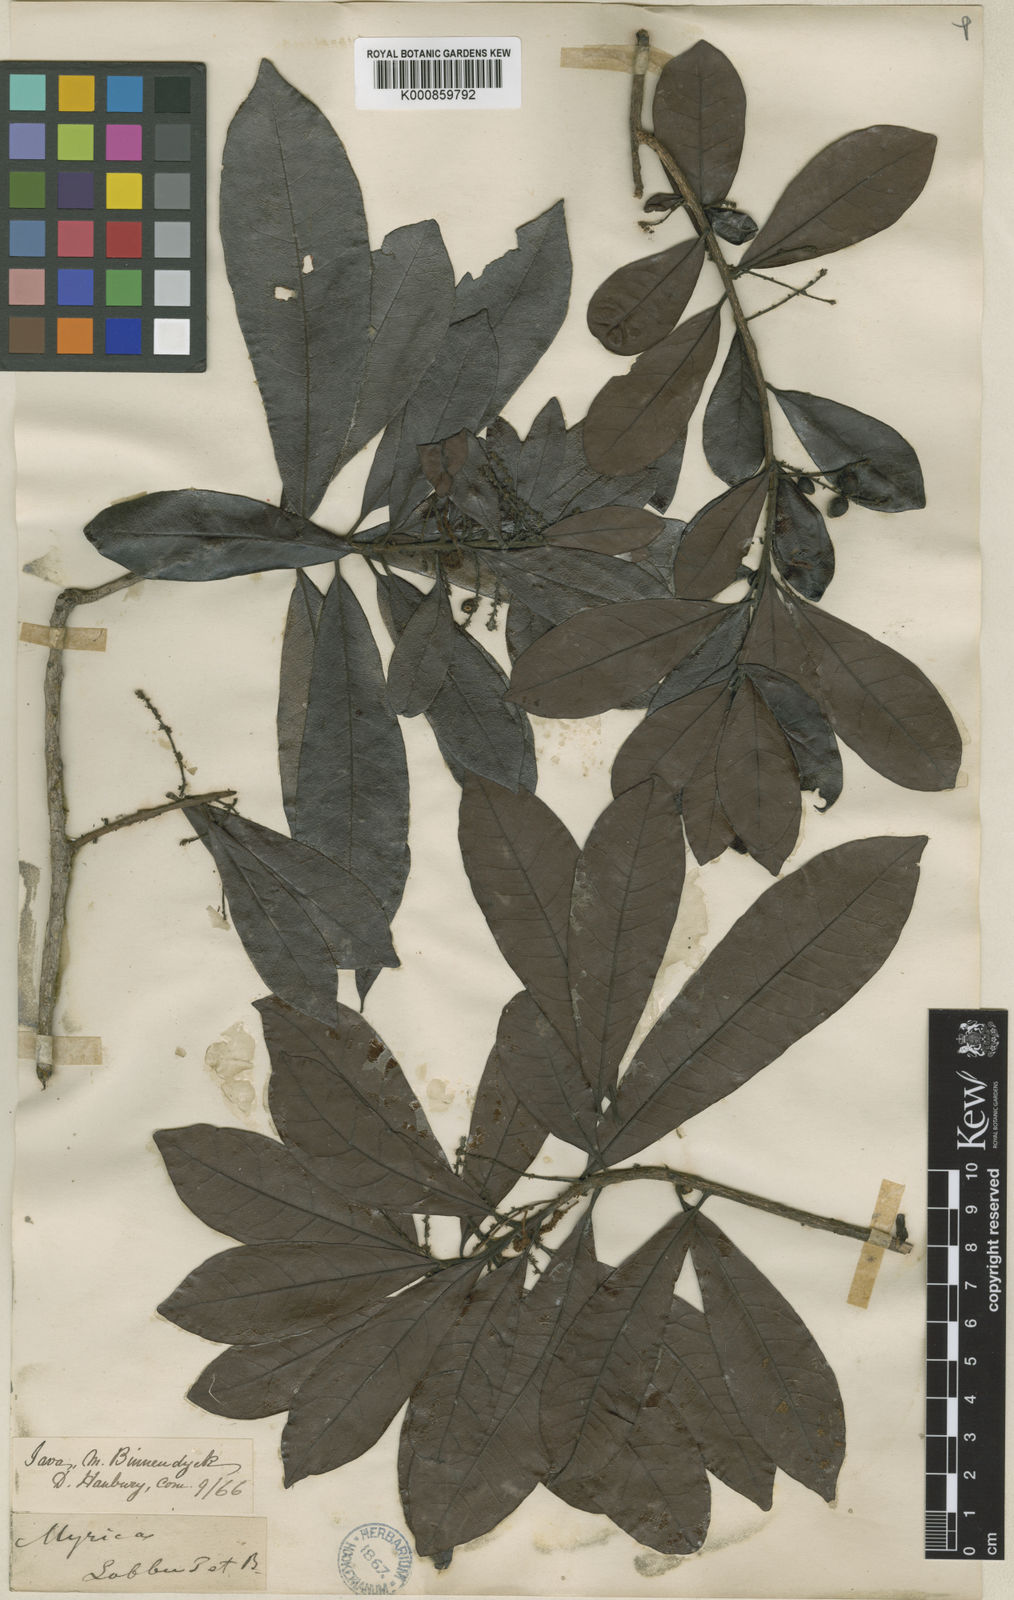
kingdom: Plantae
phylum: Tracheophyta
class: Magnoliopsida
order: Fagales
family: Myricaceae
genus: Morella
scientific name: Morella esculenta
